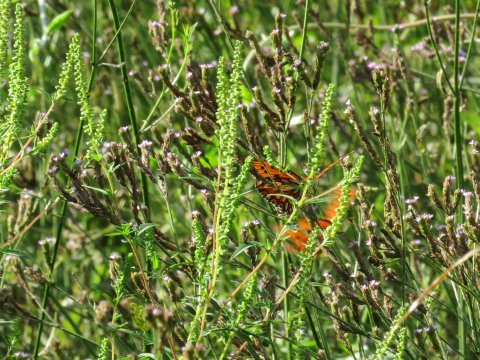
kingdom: Animalia
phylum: Arthropoda
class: Insecta
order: Lepidoptera
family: Nymphalidae
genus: Dione
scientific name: Dione vanillae
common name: Gulf Fritillary
